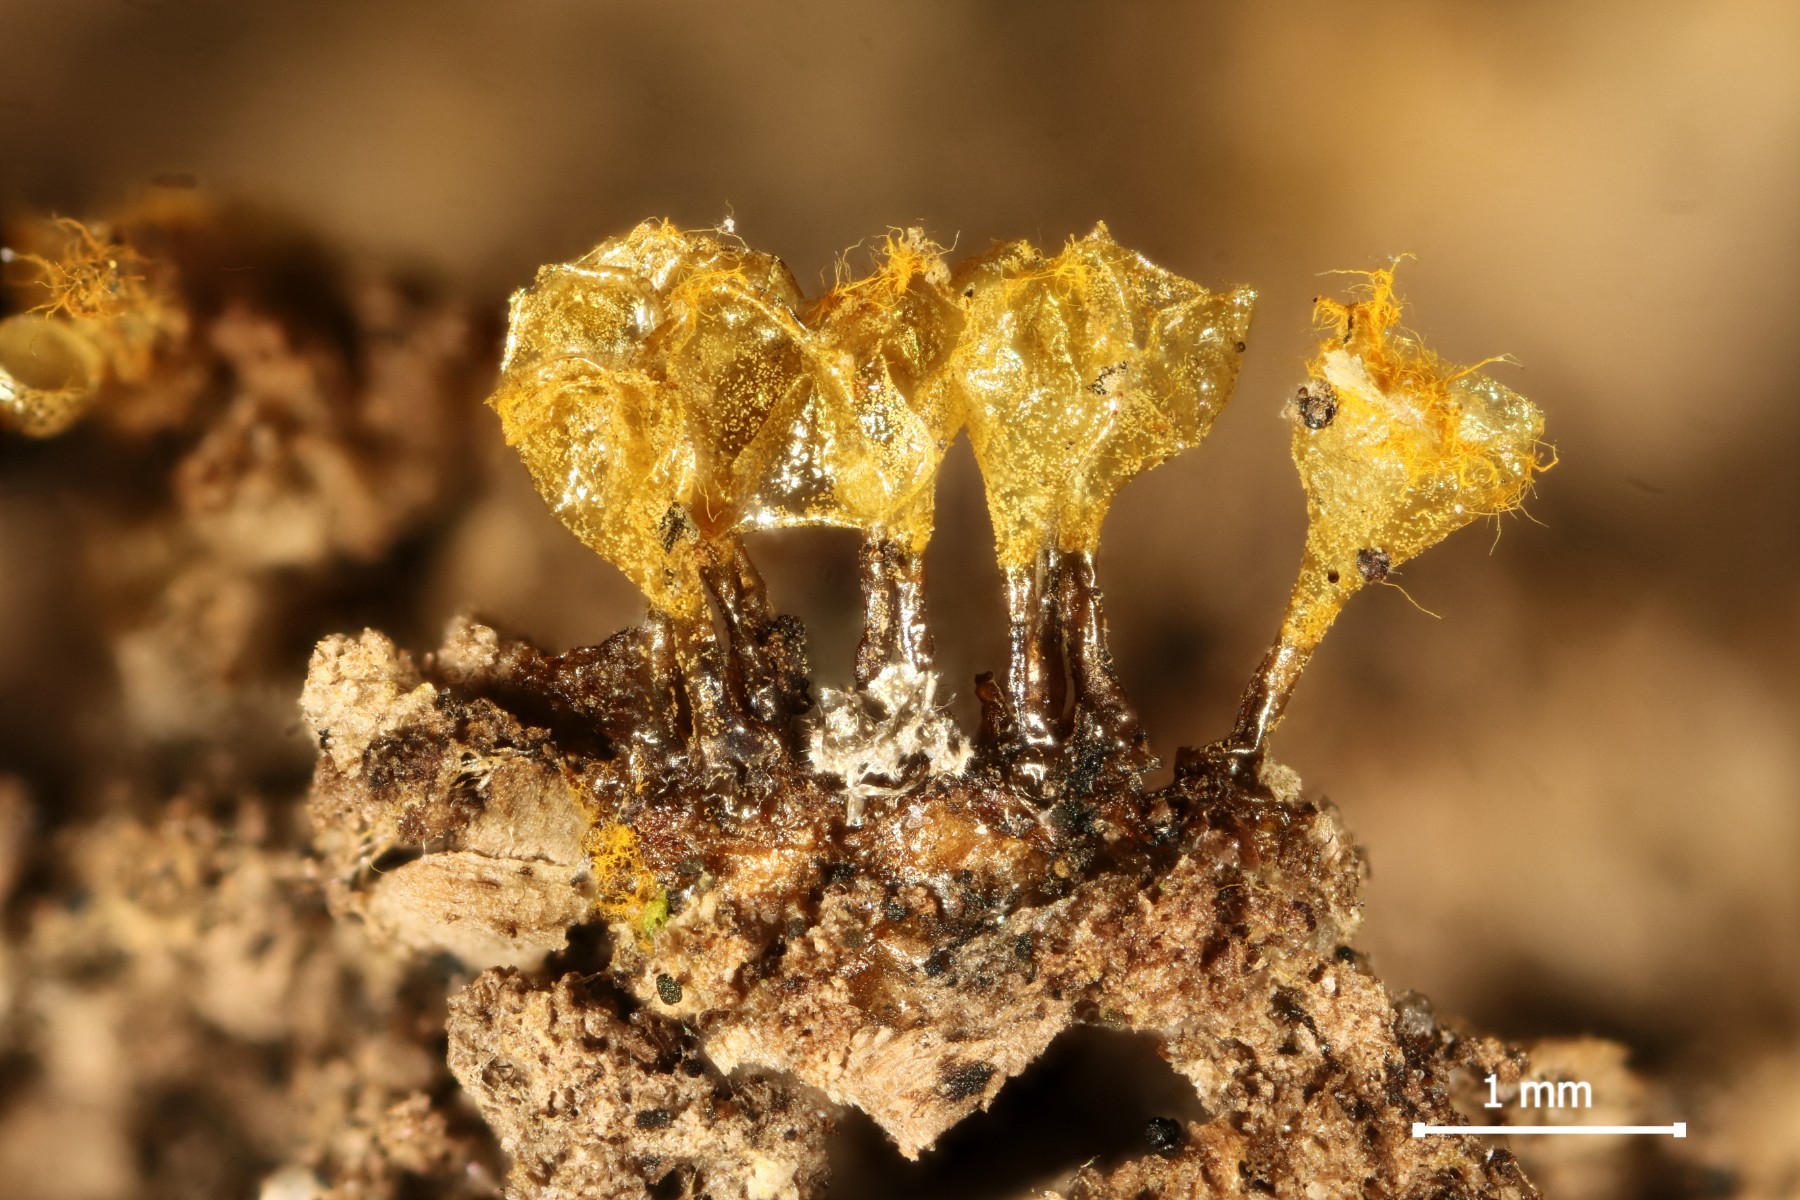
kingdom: Protozoa
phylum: Mycetozoa
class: Myxomycetes
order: Trichiales
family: Arcyriaceae
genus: Hemitrichia
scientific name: Hemitrichia decipiens
